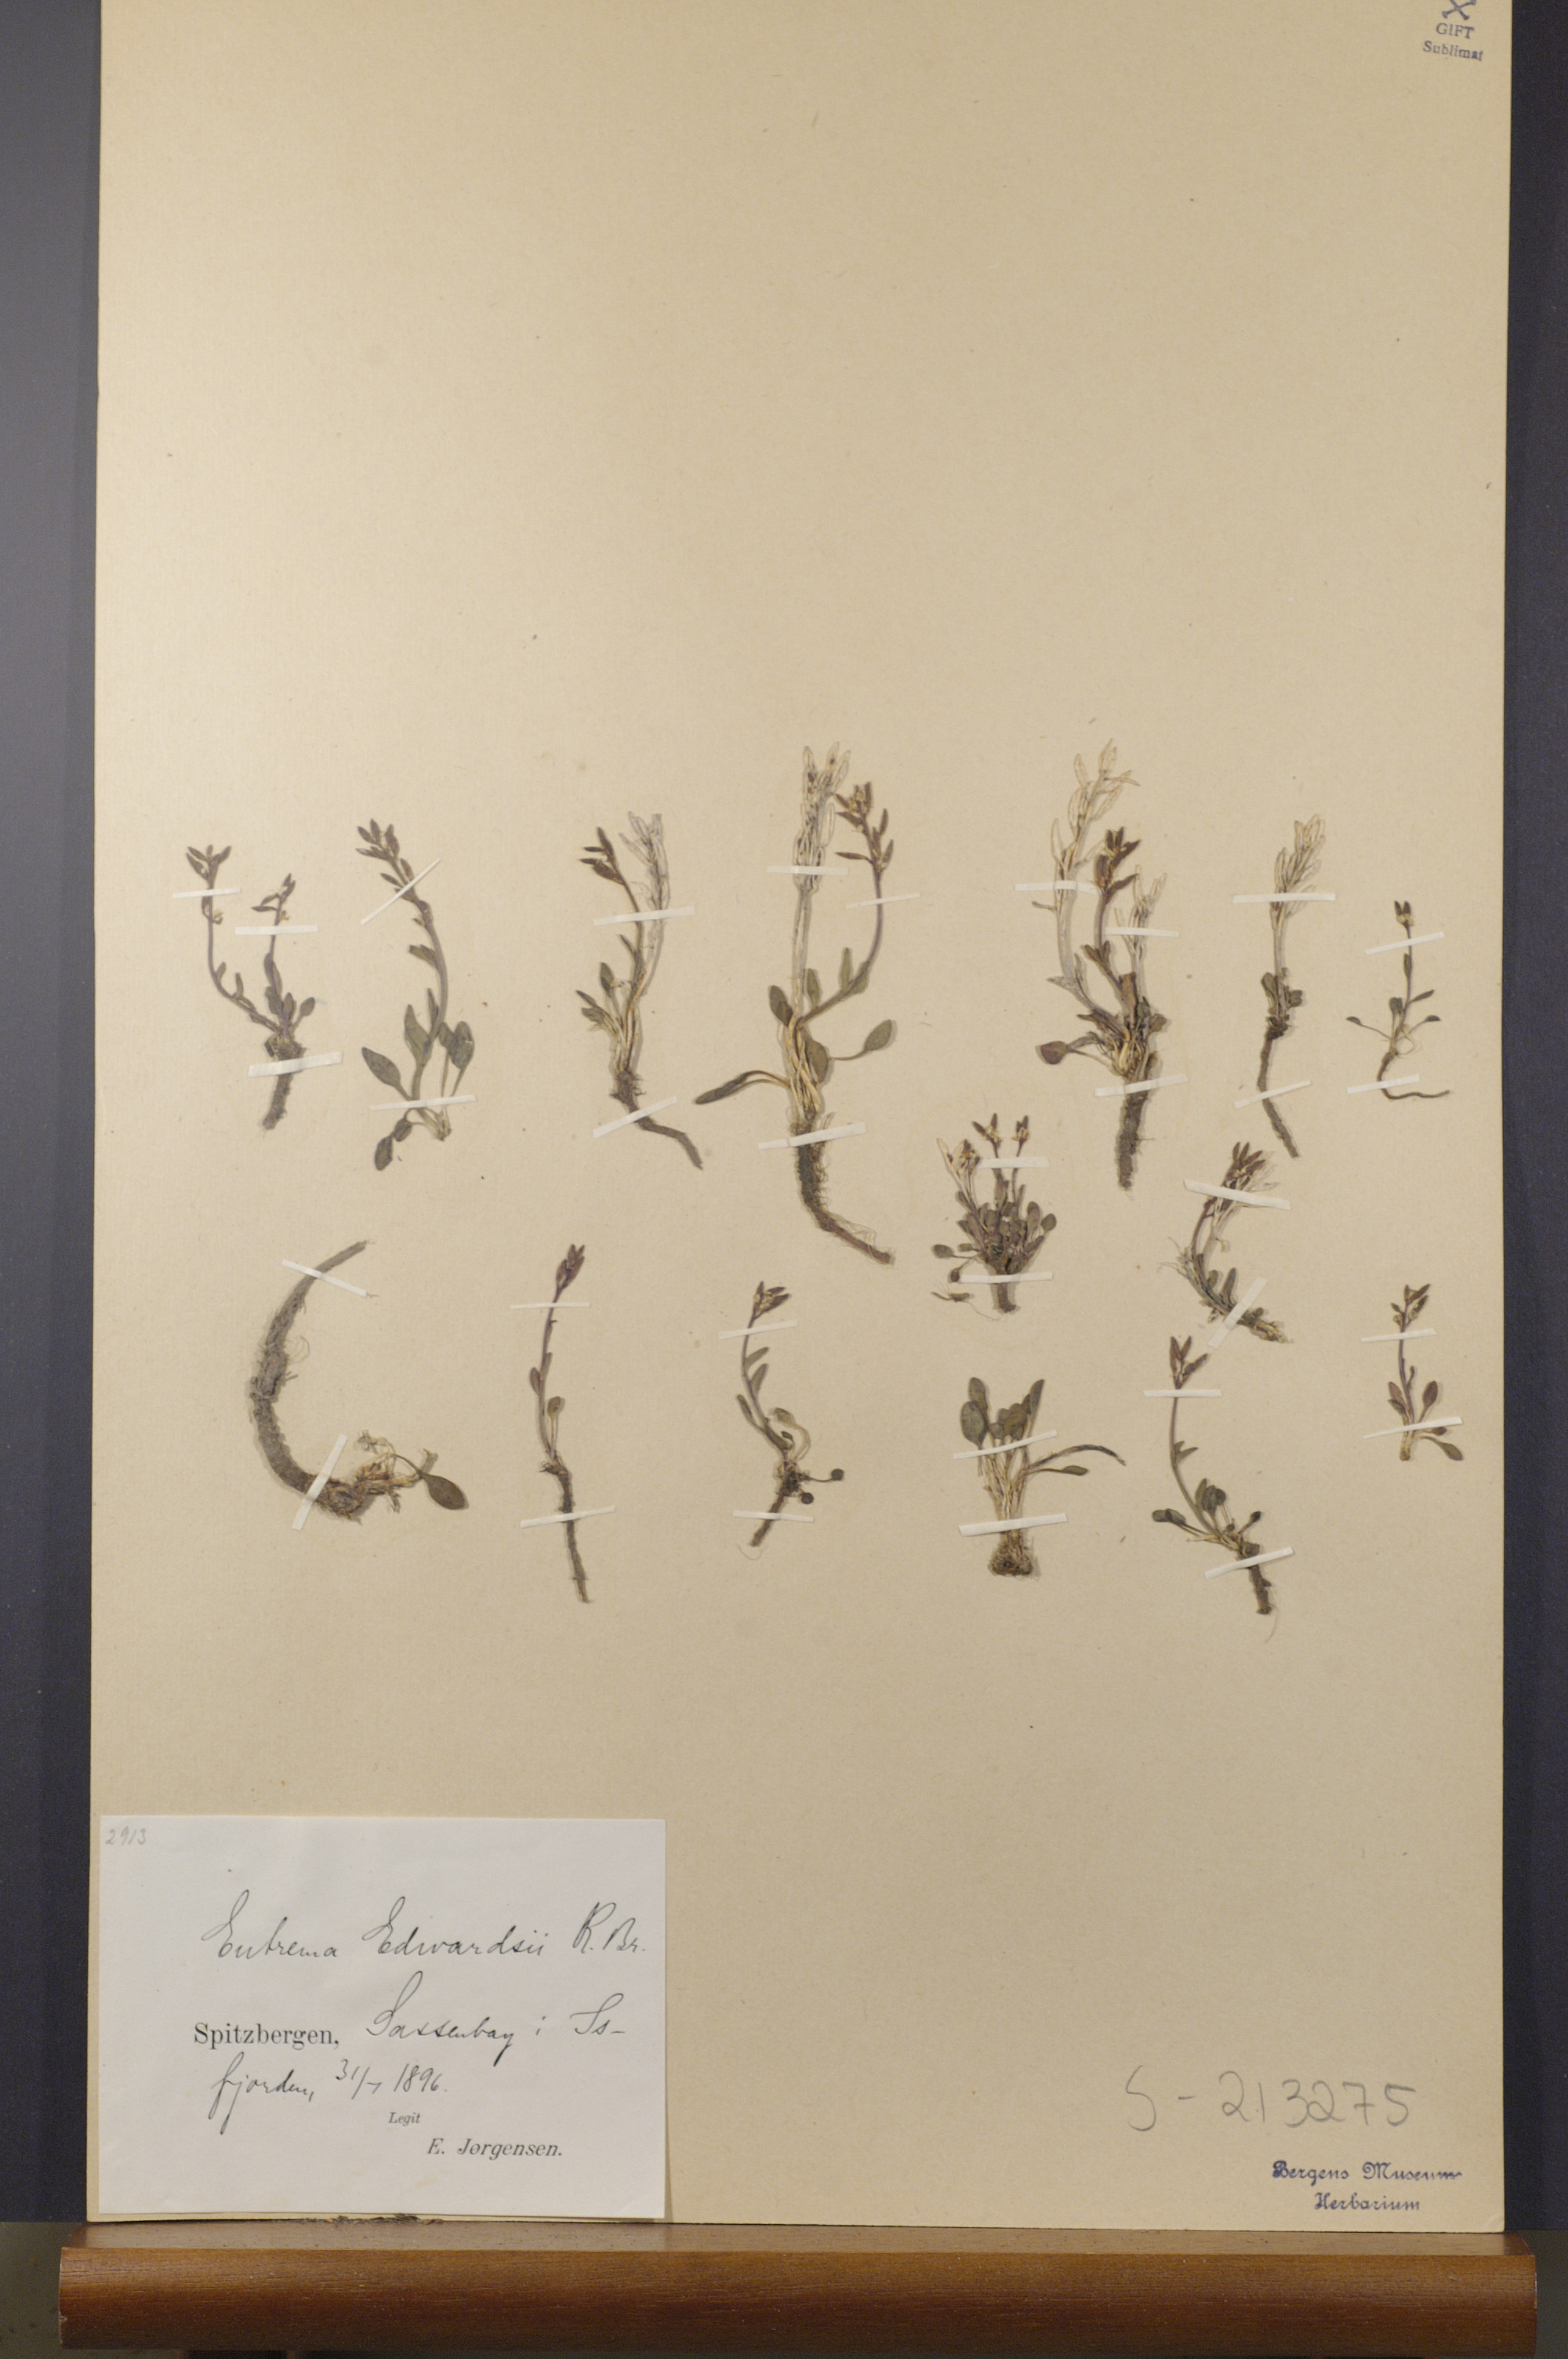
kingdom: Plantae
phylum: Tracheophyta
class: Magnoliopsida
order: Brassicales
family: Brassicaceae
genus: Eutrema
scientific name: Eutrema edwardsii
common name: Penland alpine fen mustard
